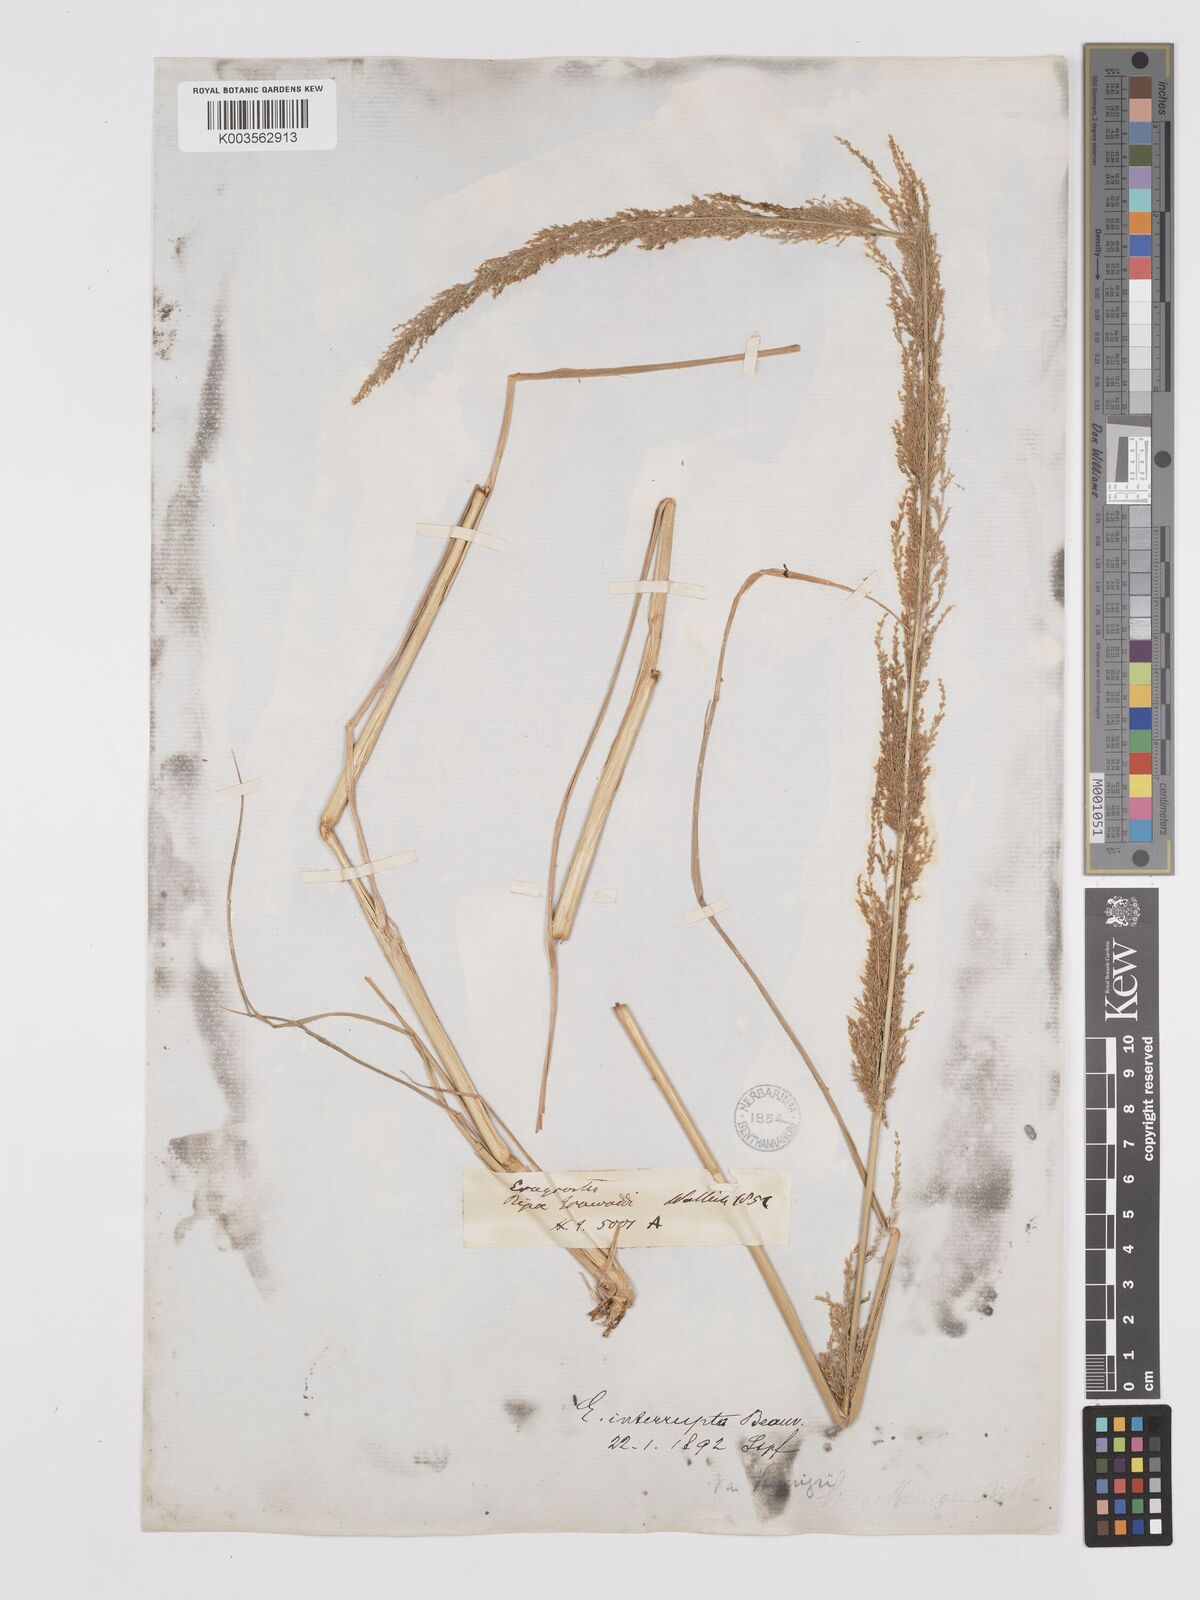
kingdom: Plantae
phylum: Tracheophyta
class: Liliopsida
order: Poales
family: Poaceae
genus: Eragrostis
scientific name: Eragrostis japonica
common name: Pond lovegrass
